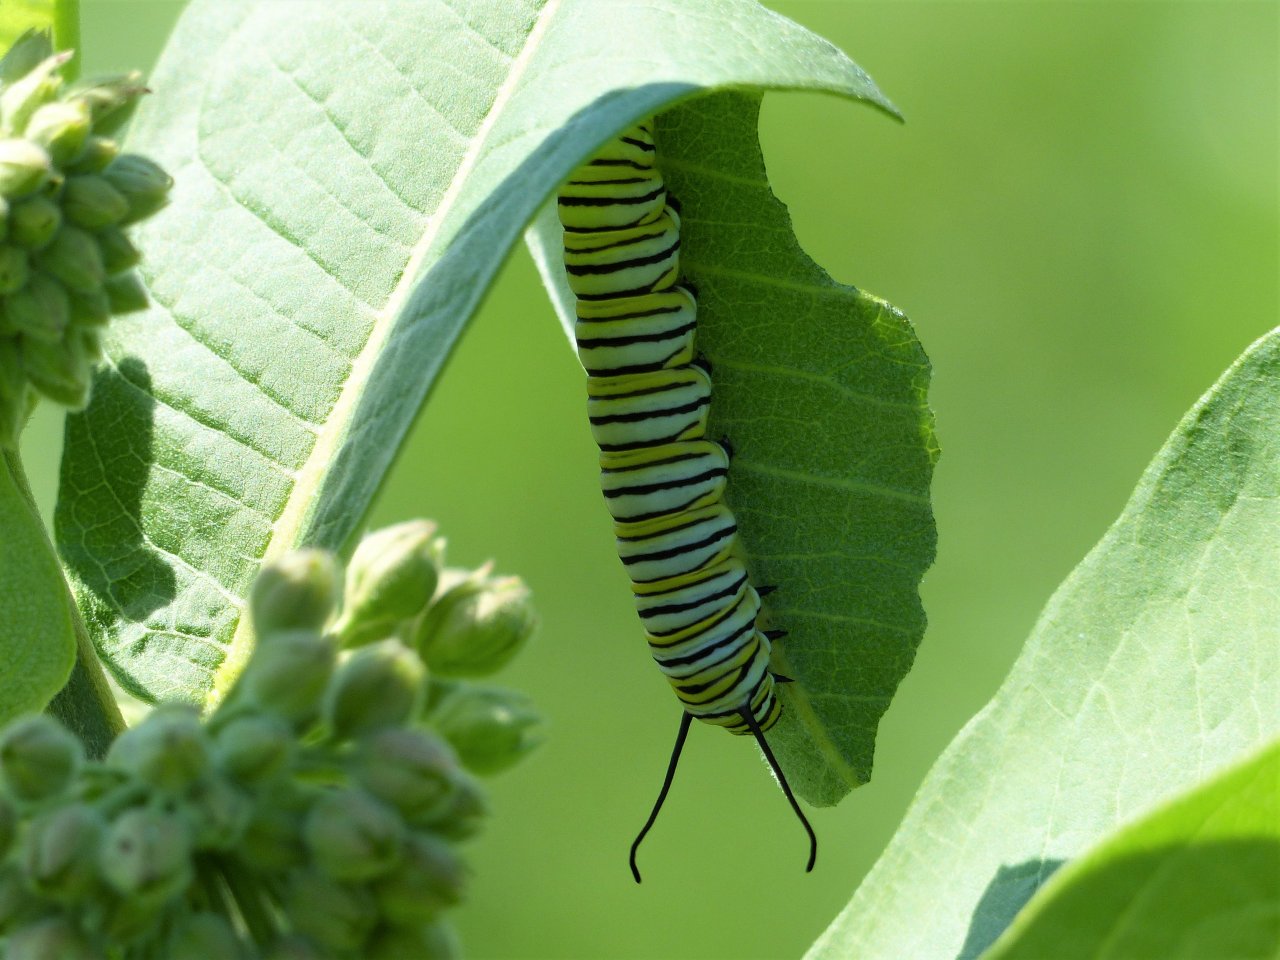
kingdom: Animalia
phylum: Arthropoda
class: Insecta
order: Lepidoptera
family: Nymphalidae
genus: Danaus
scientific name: Danaus plexippus
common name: Monarch
